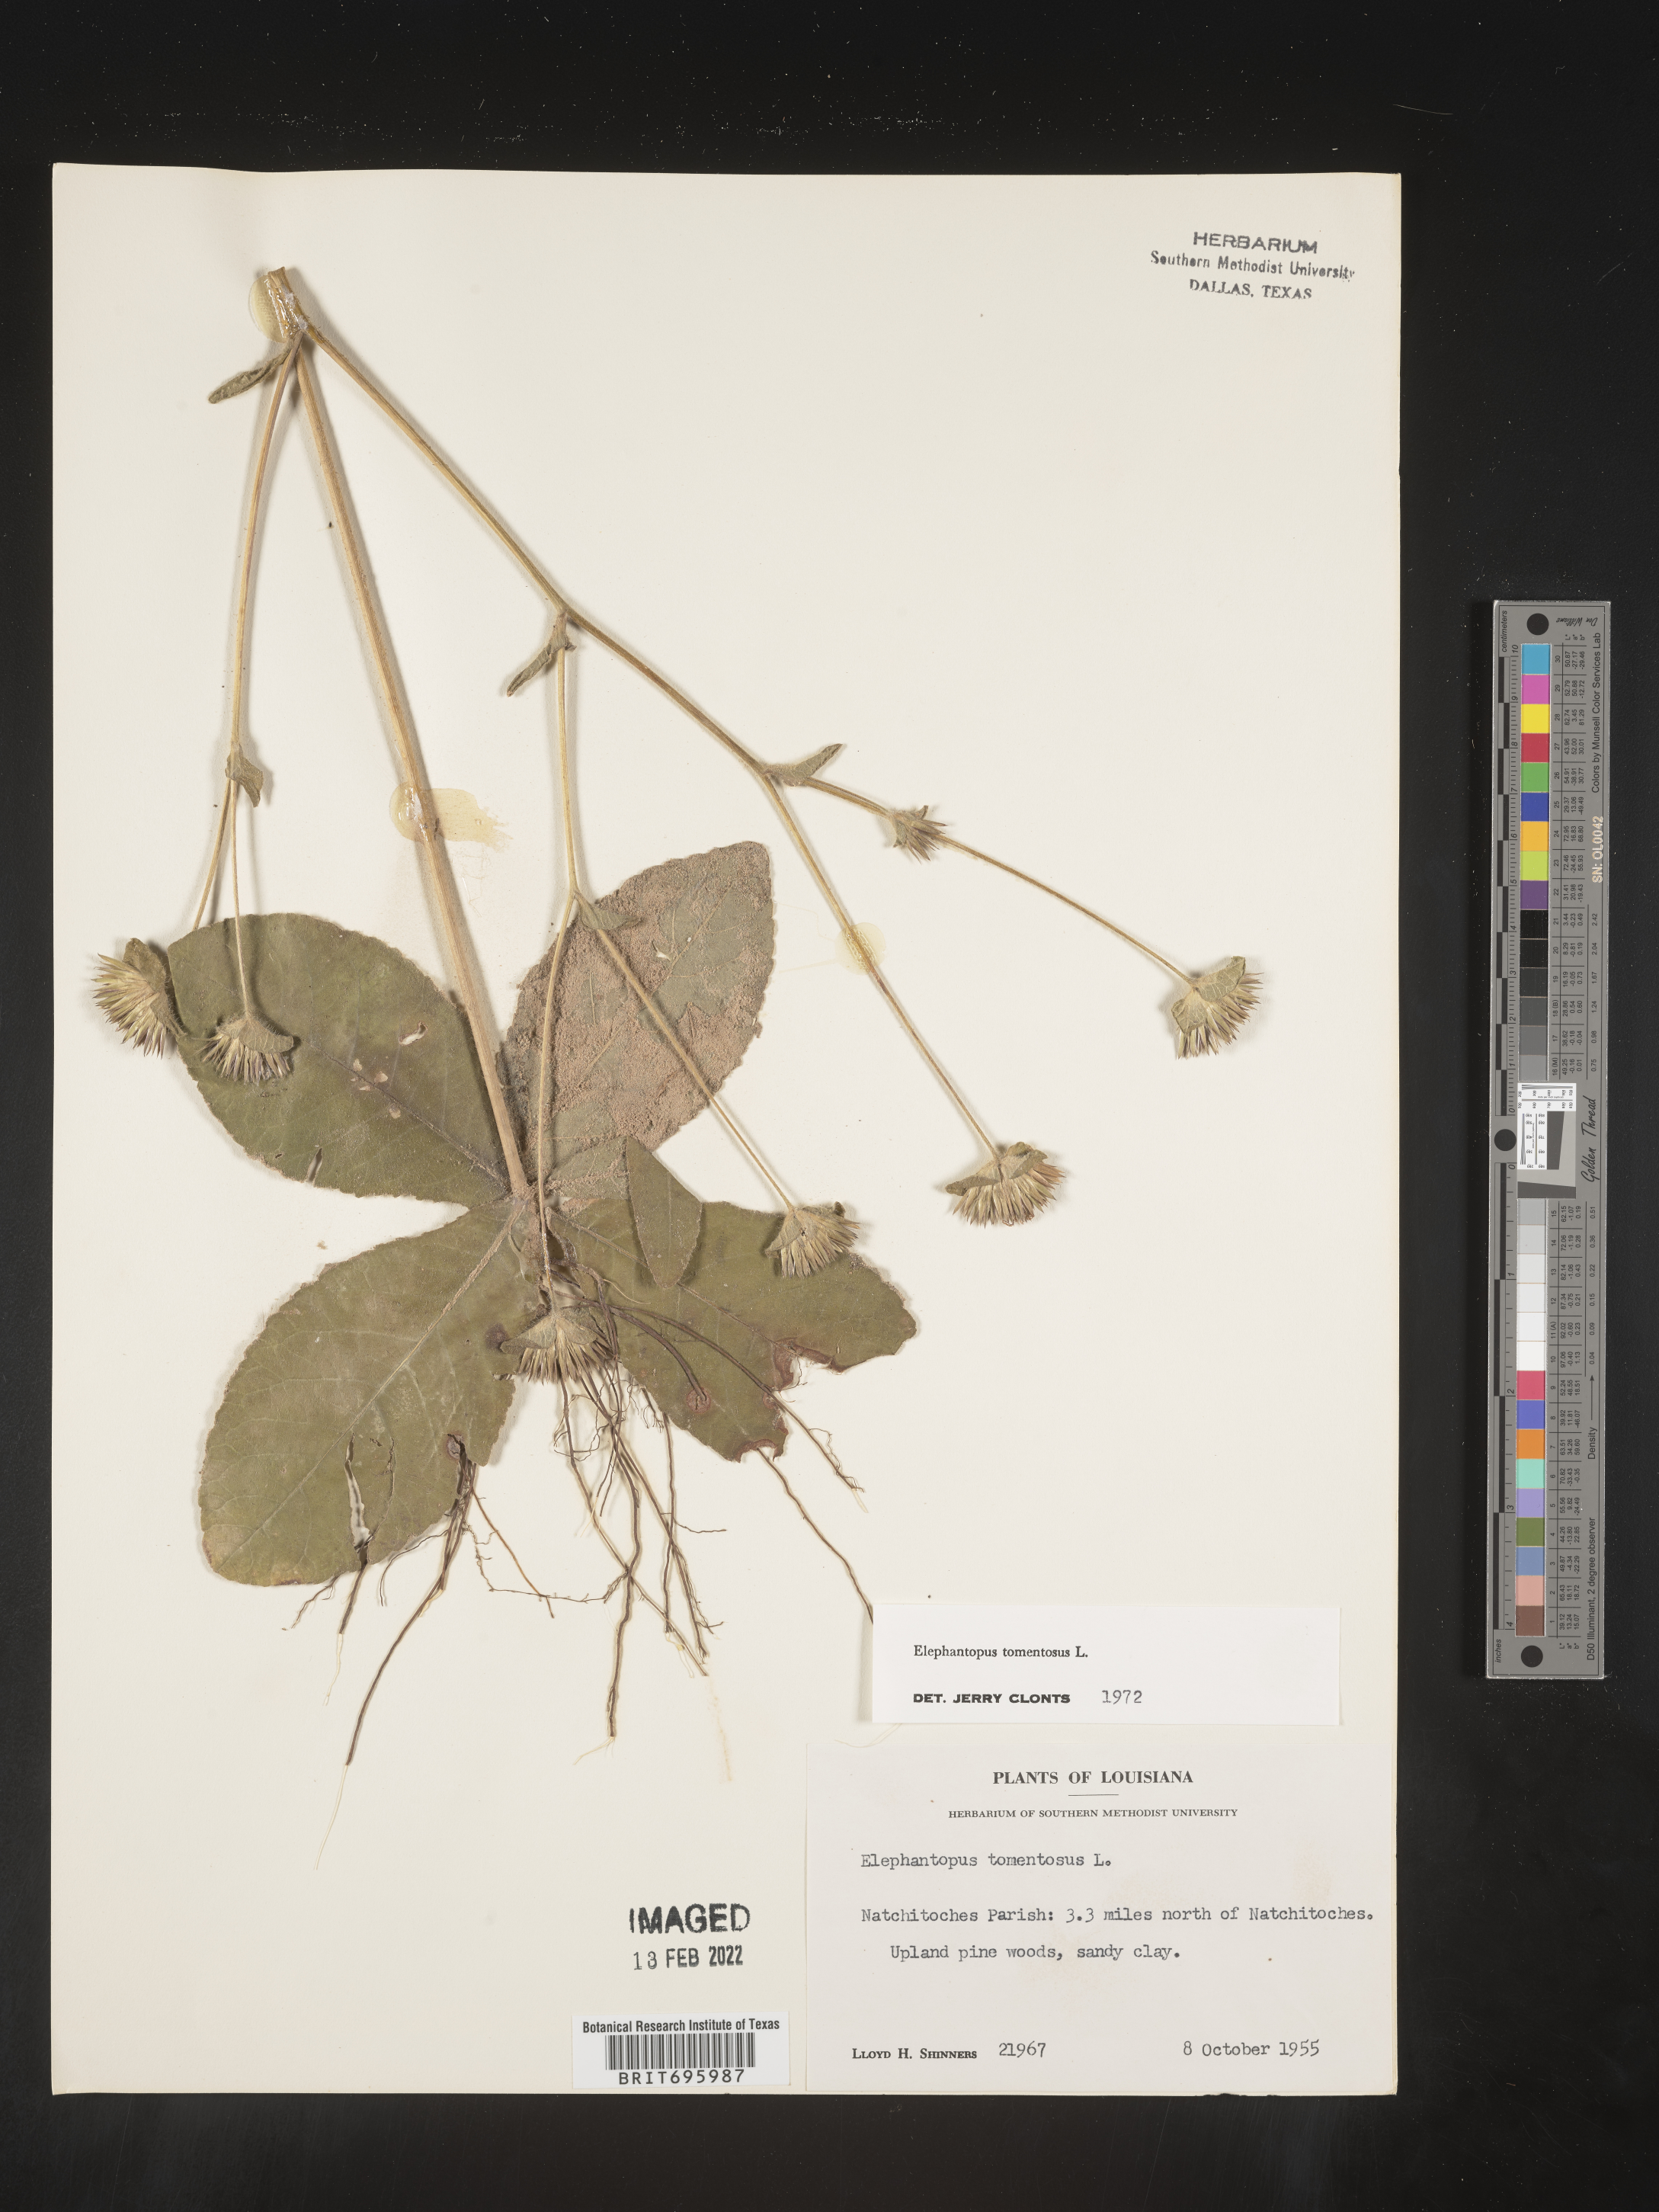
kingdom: Plantae
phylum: Tracheophyta
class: Magnoliopsida
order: Asterales
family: Asteraceae
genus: Elephantopus
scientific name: Elephantopus tomentosus
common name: Tobacco-weed
